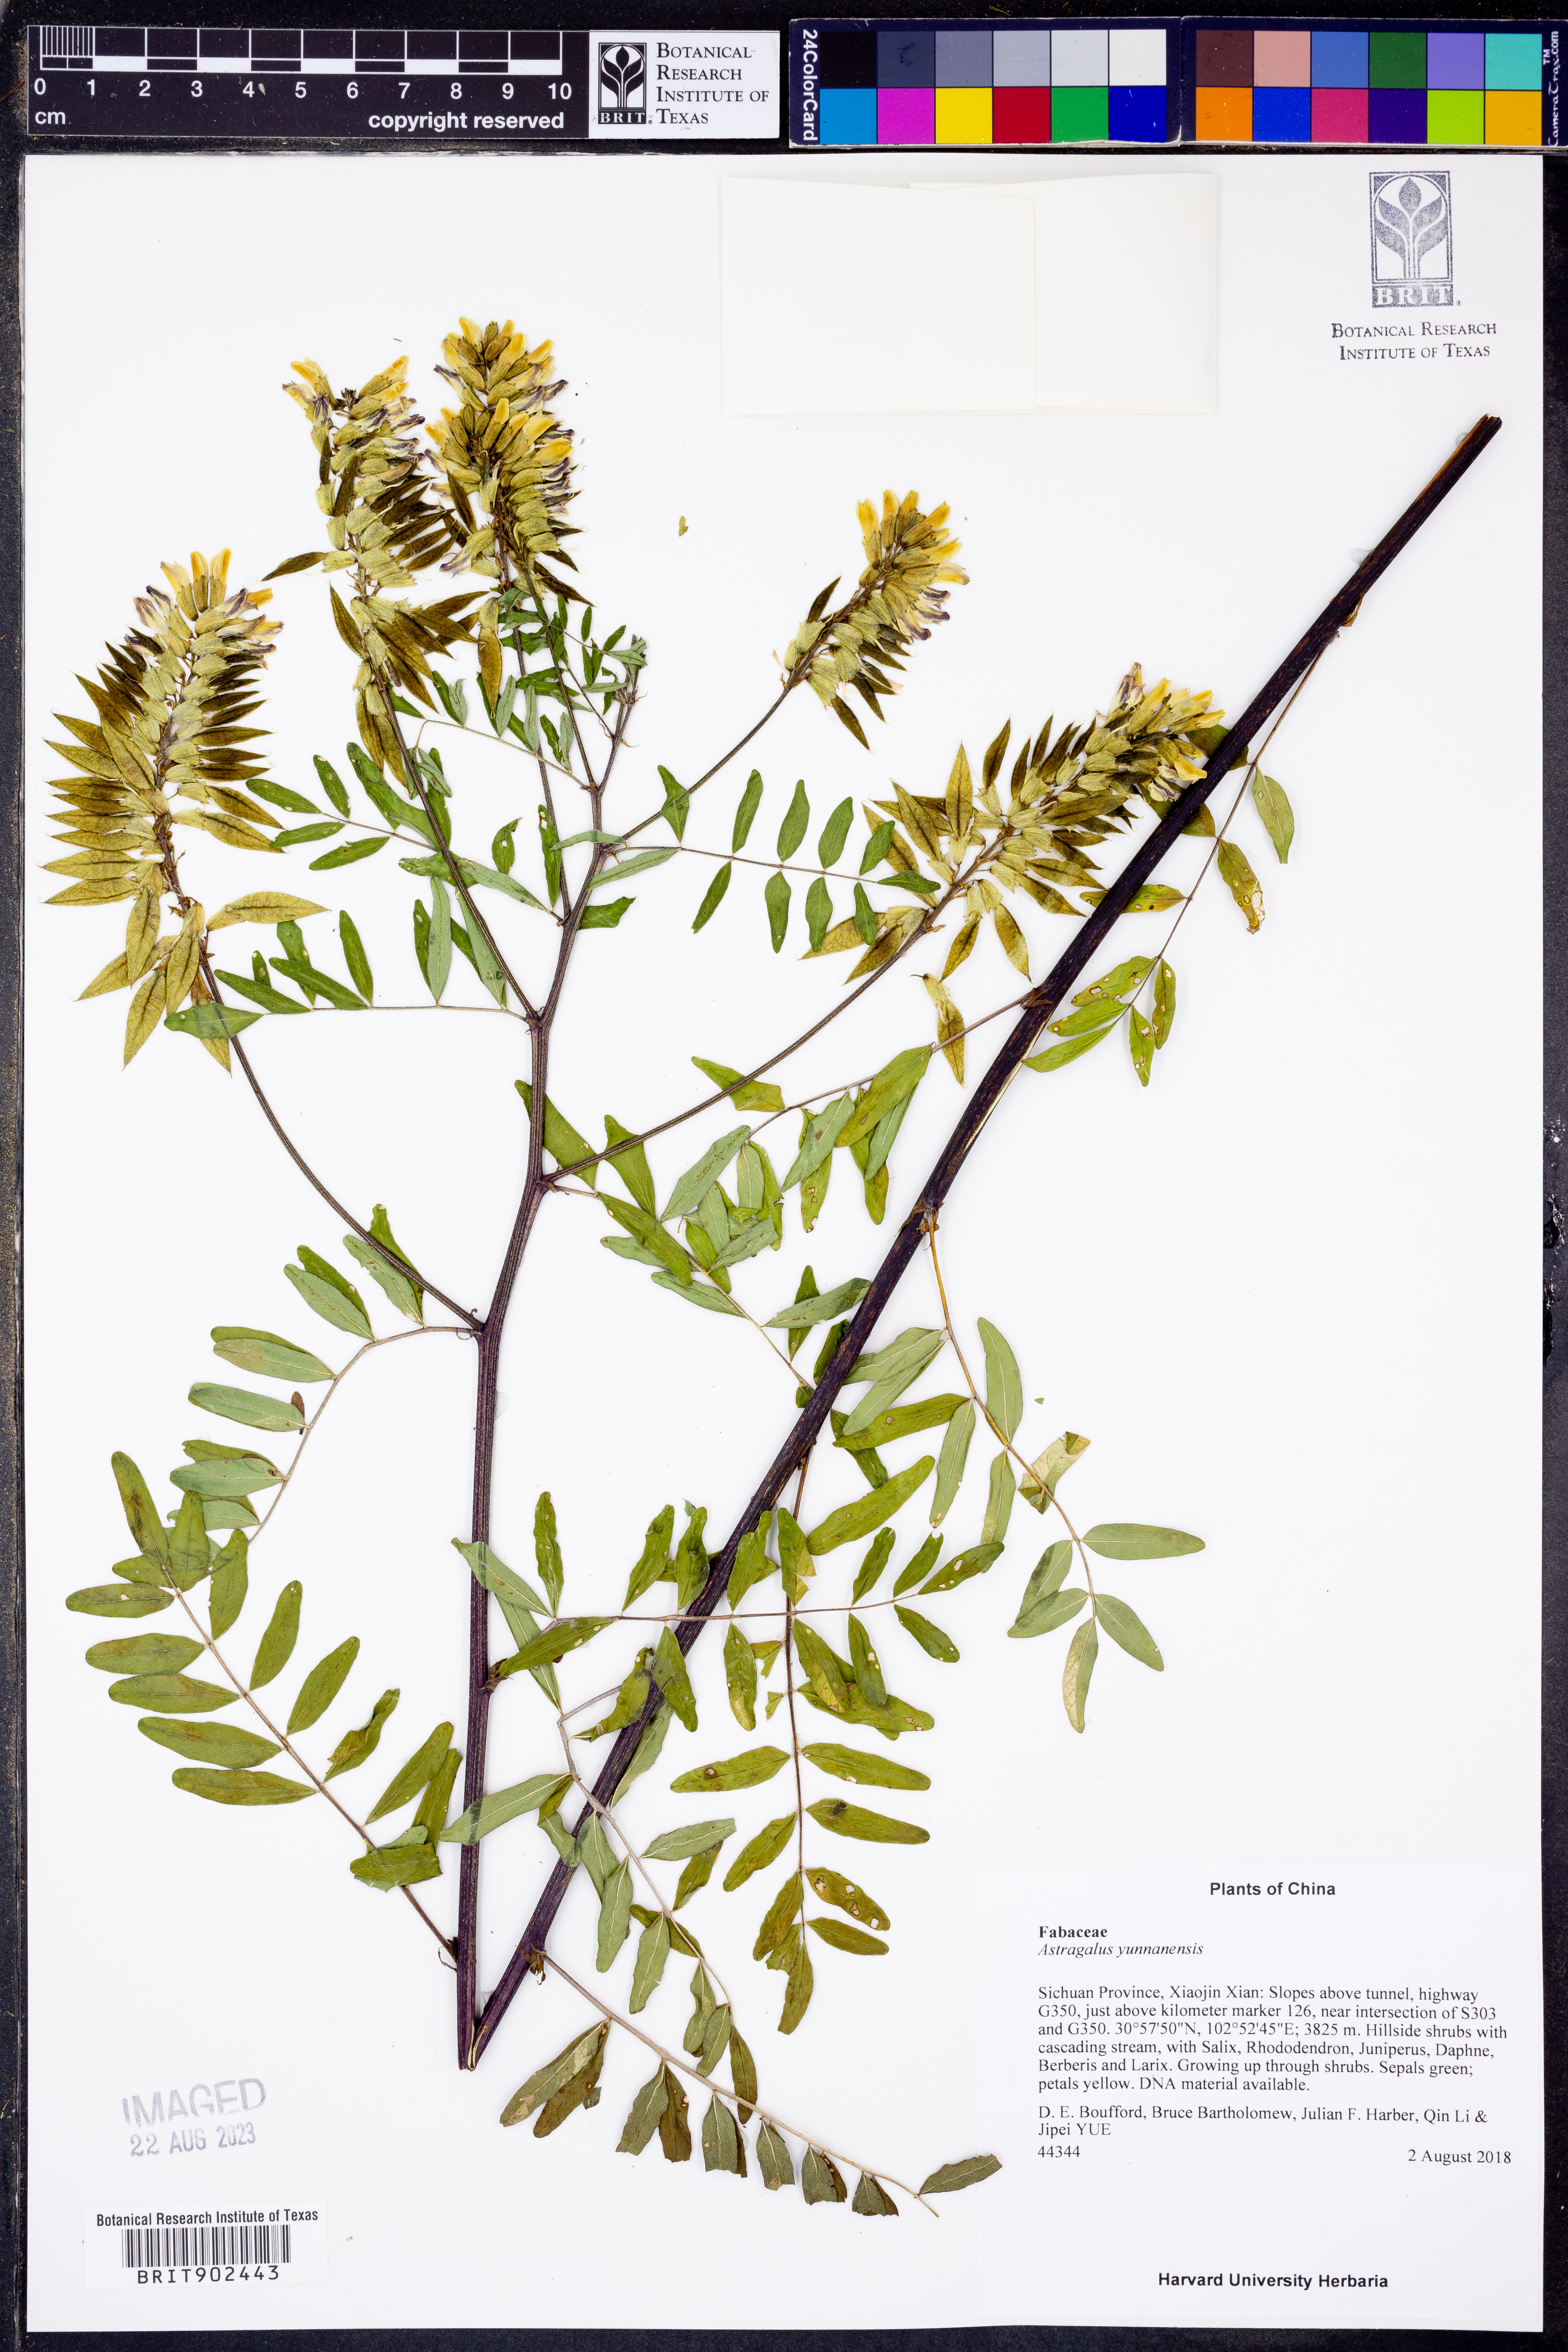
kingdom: Plantae
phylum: Tracheophyta
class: Magnoliopsida
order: Fabales
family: Fabaceae
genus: Astragalus
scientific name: Astragalus
